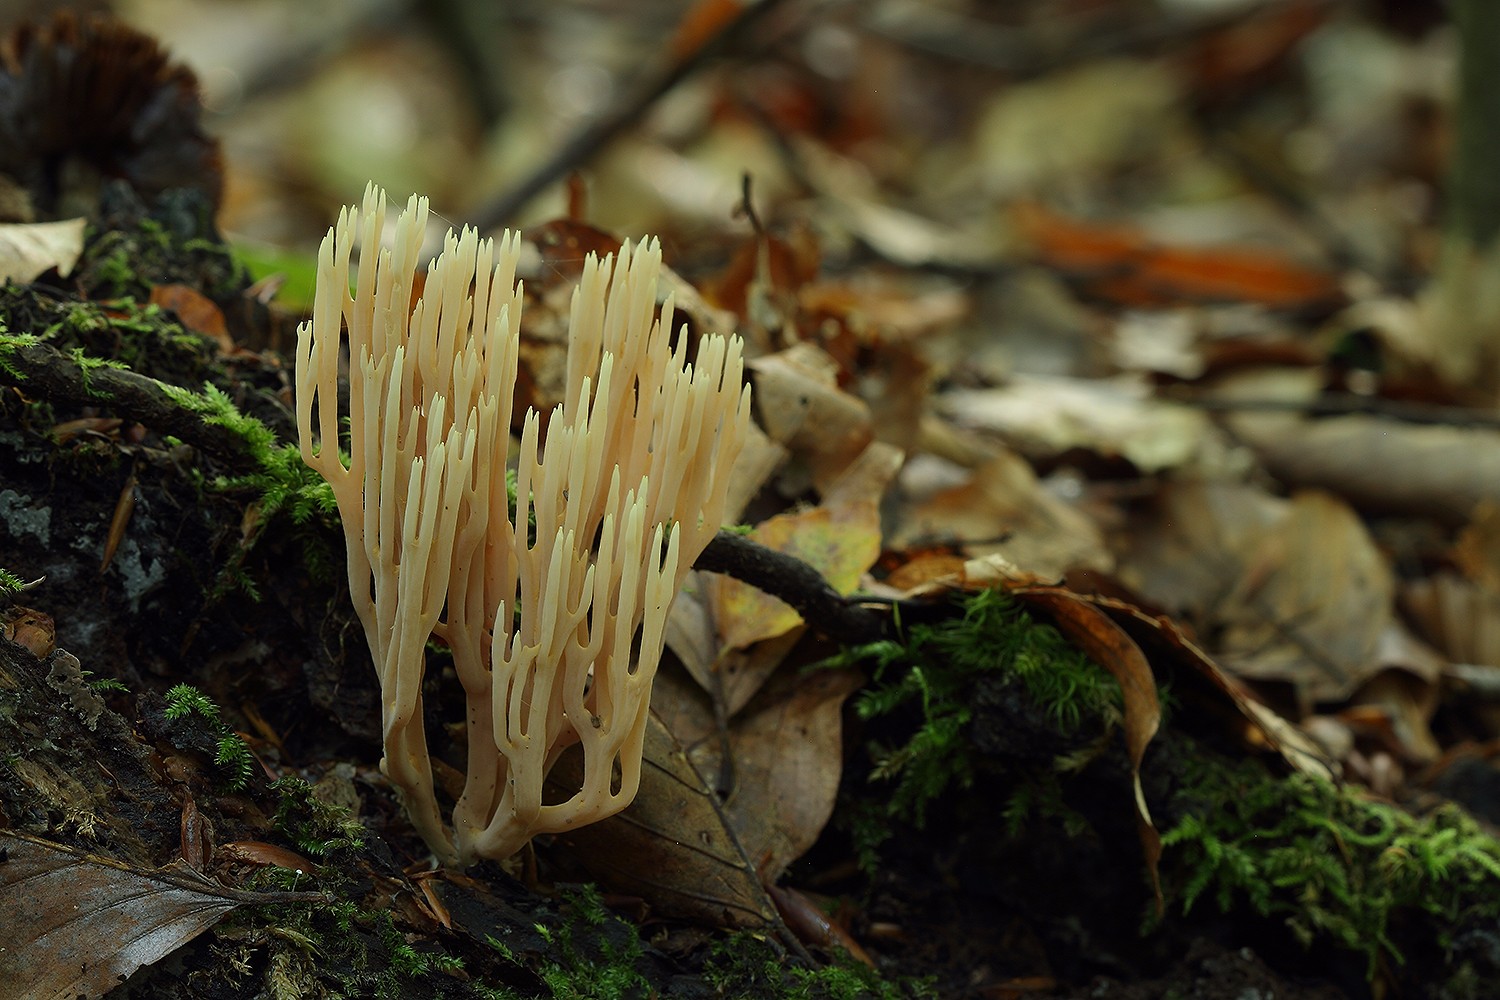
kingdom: Fungi
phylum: Basidiomycota
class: Agaricomycetes
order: Gomphales
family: Gomphaceae
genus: Ramaria
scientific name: Ramaria stricta
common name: rank koralsvamp
